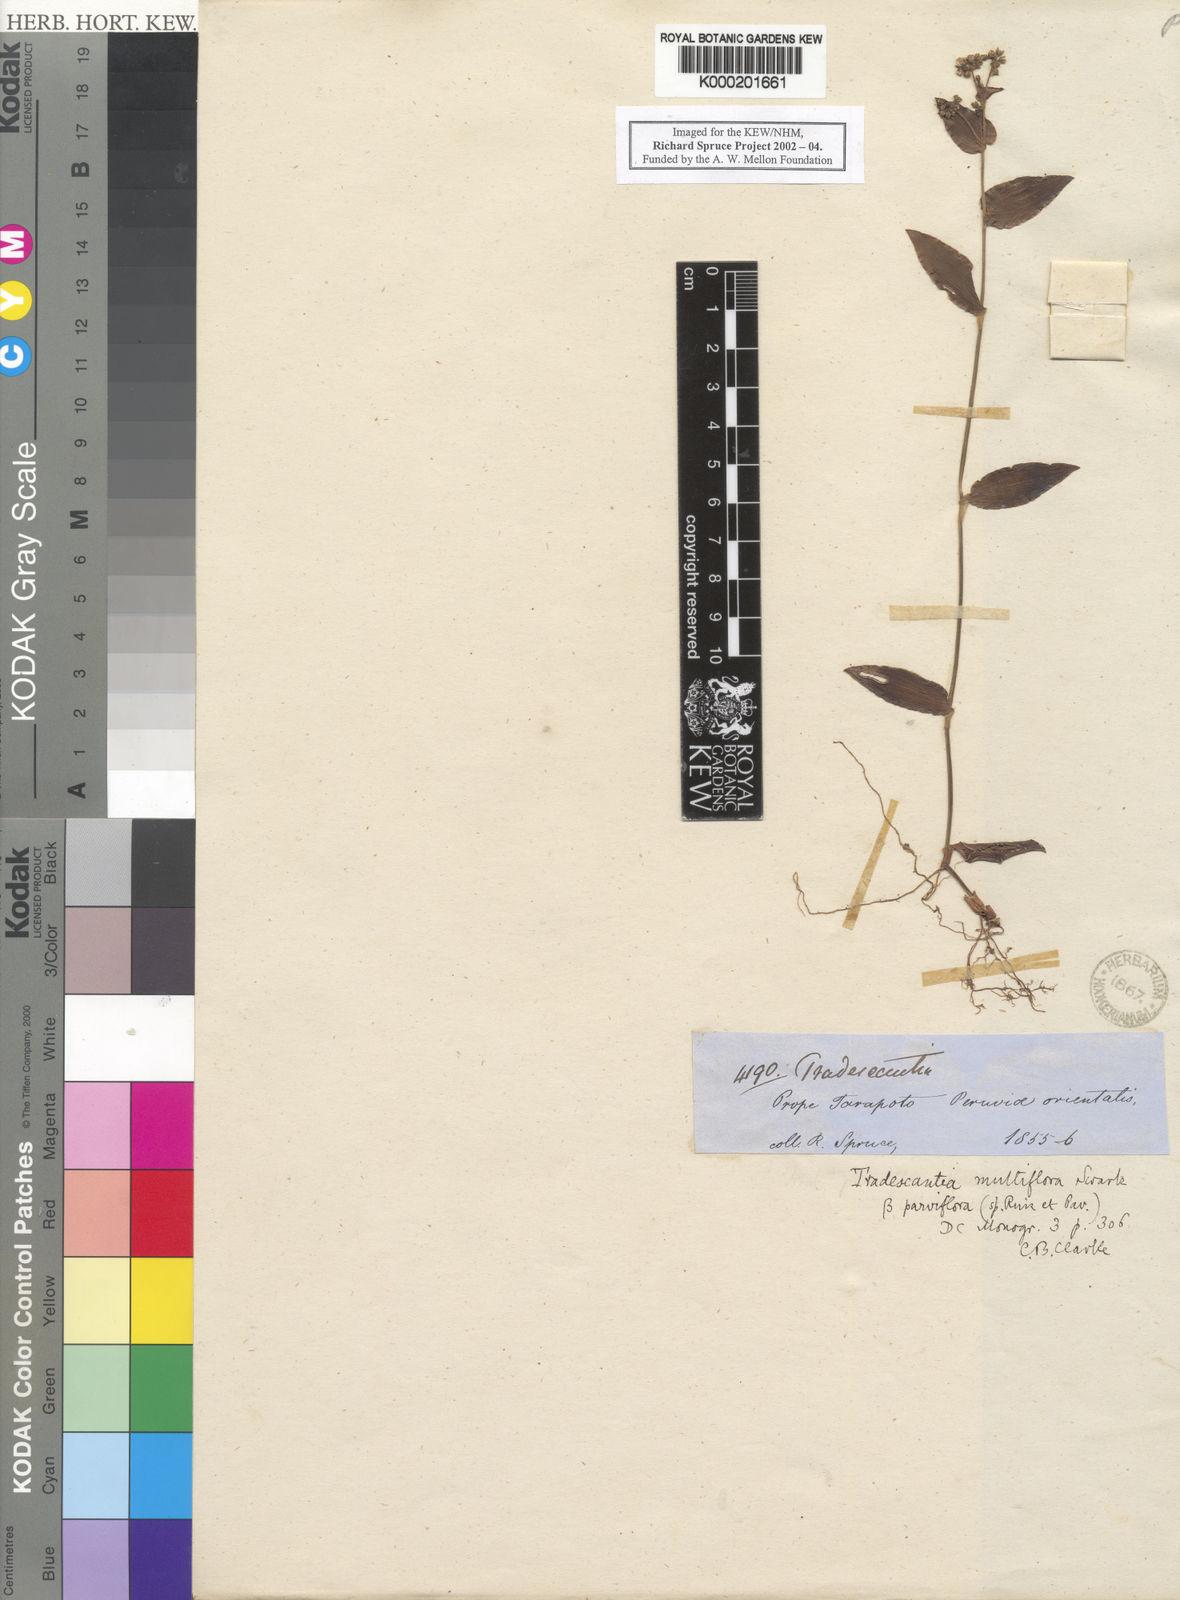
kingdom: Plantae
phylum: Tracheophyta
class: Liliopsida
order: Commelinales
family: Commelinaceae
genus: Callisia
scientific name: Callisia procumbens
